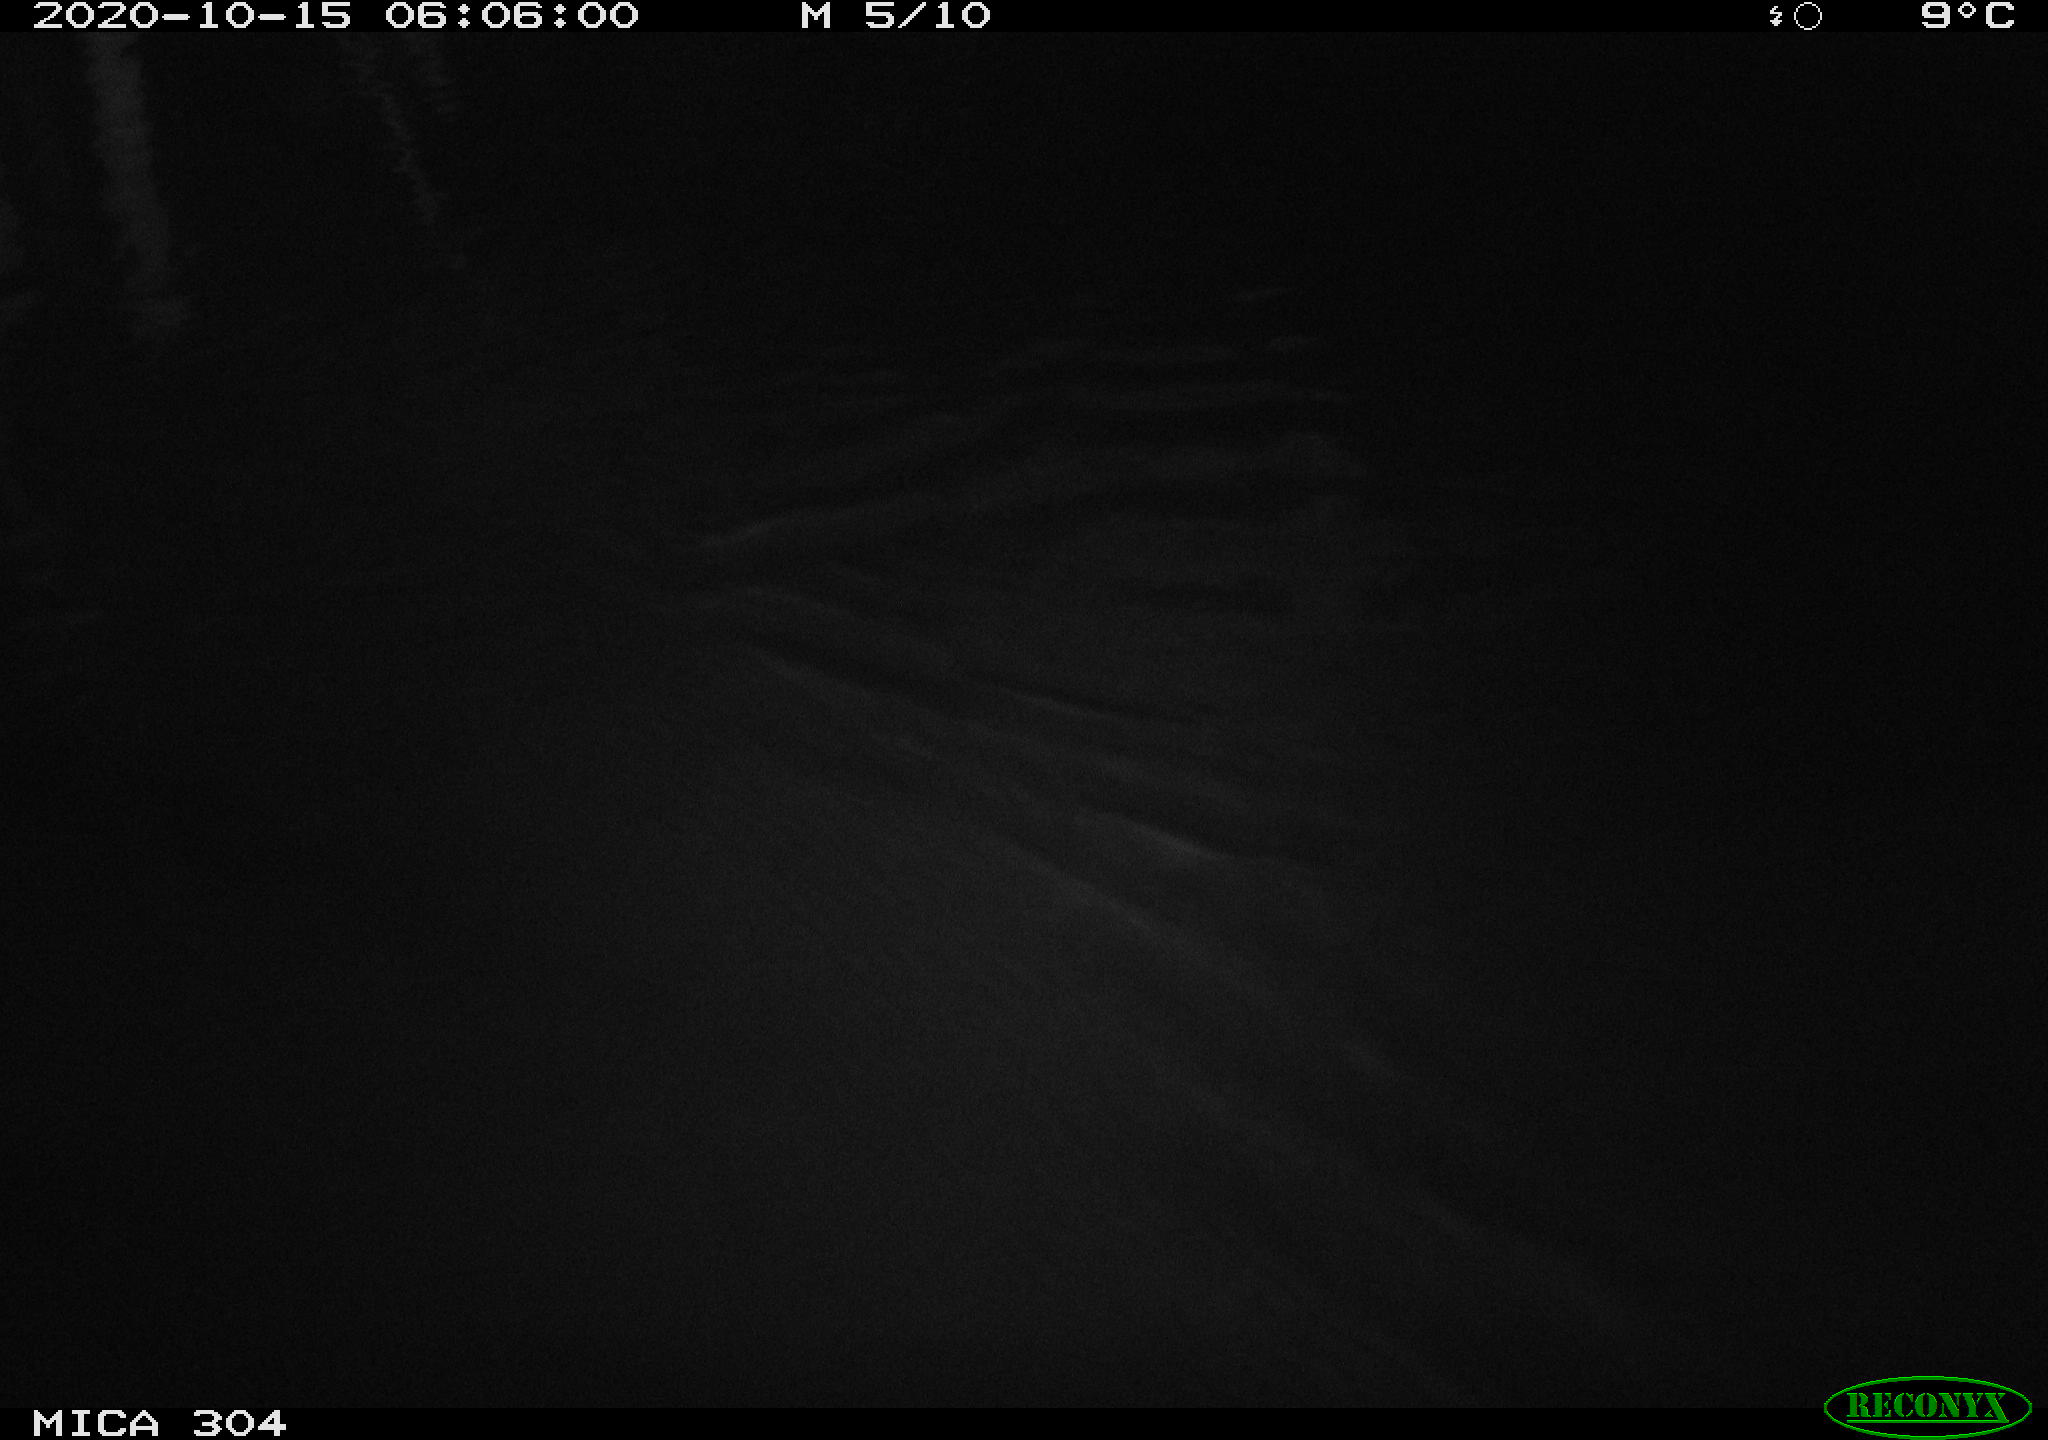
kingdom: Animalia
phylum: Chordata
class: Mammalia
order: Rodentia
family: Muridae
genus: Rattus
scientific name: Rattus norvegicus
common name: Brown rat
